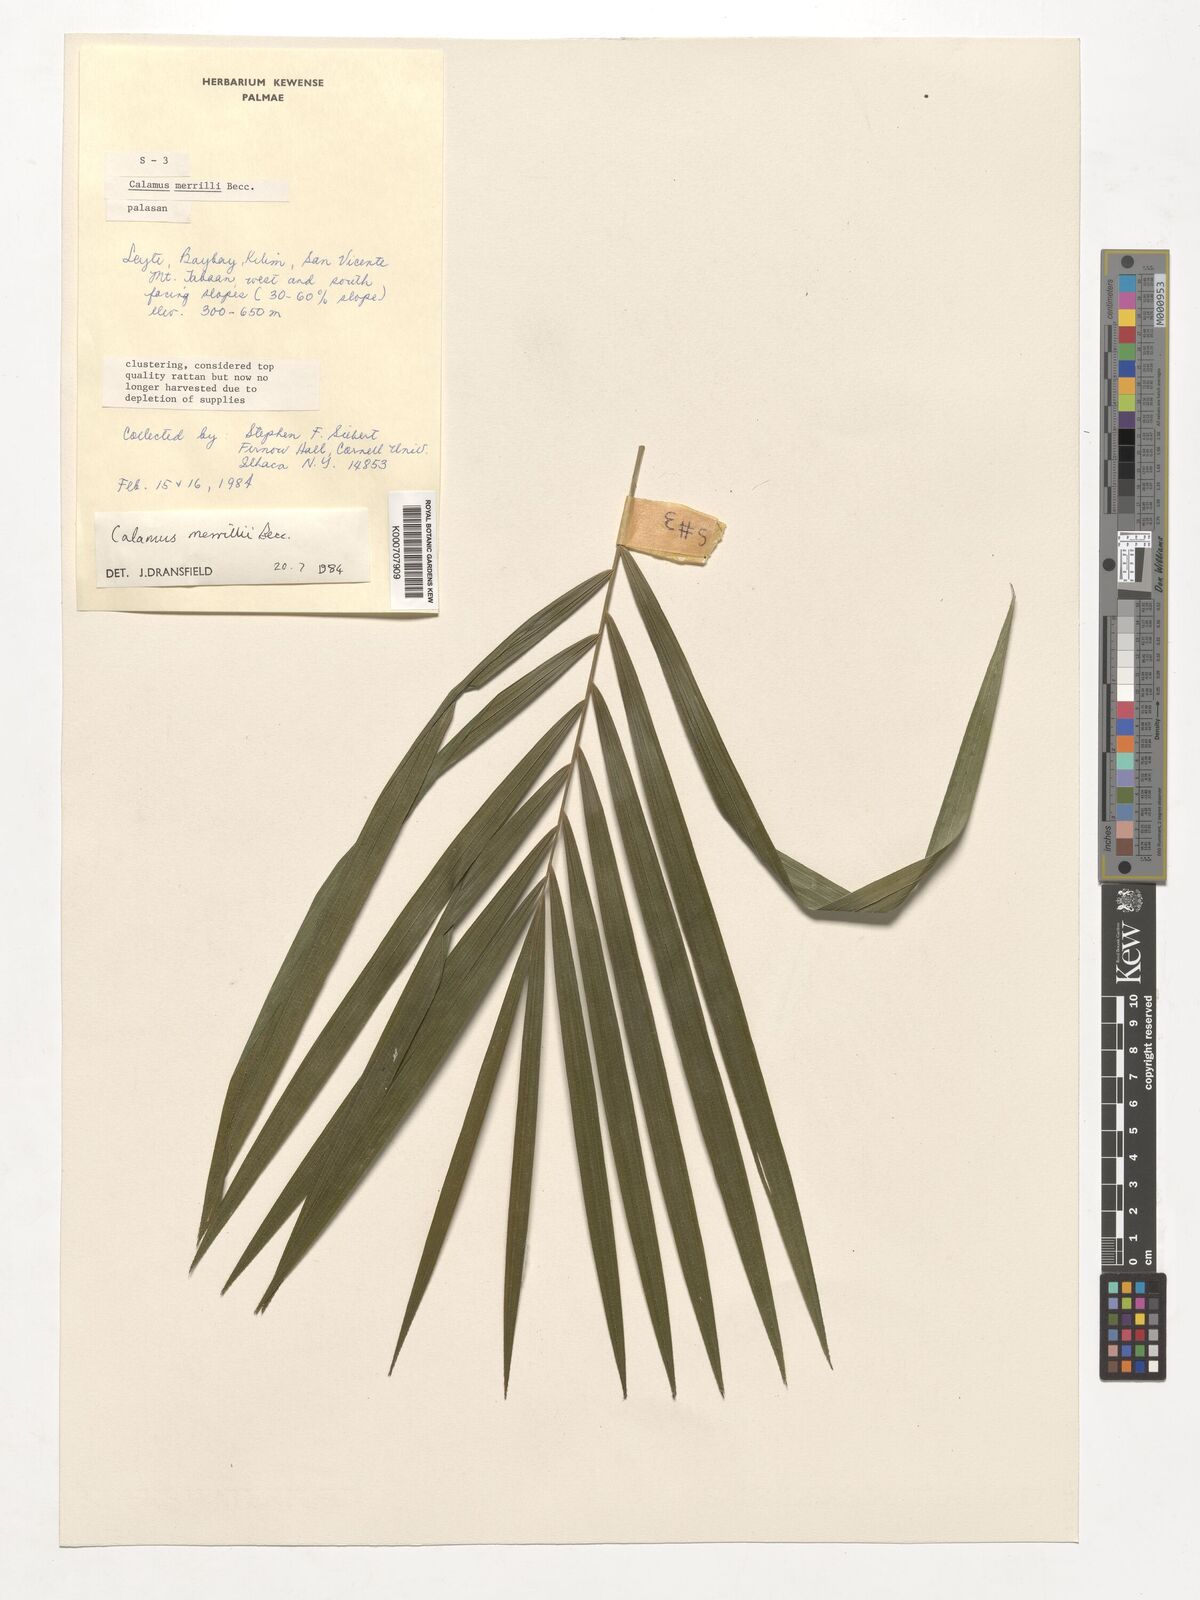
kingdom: Plantae
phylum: Tracheophyta
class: Liliopsida
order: Arecales
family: Arecaceae
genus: Calamus
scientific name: Calamus zollingeri
